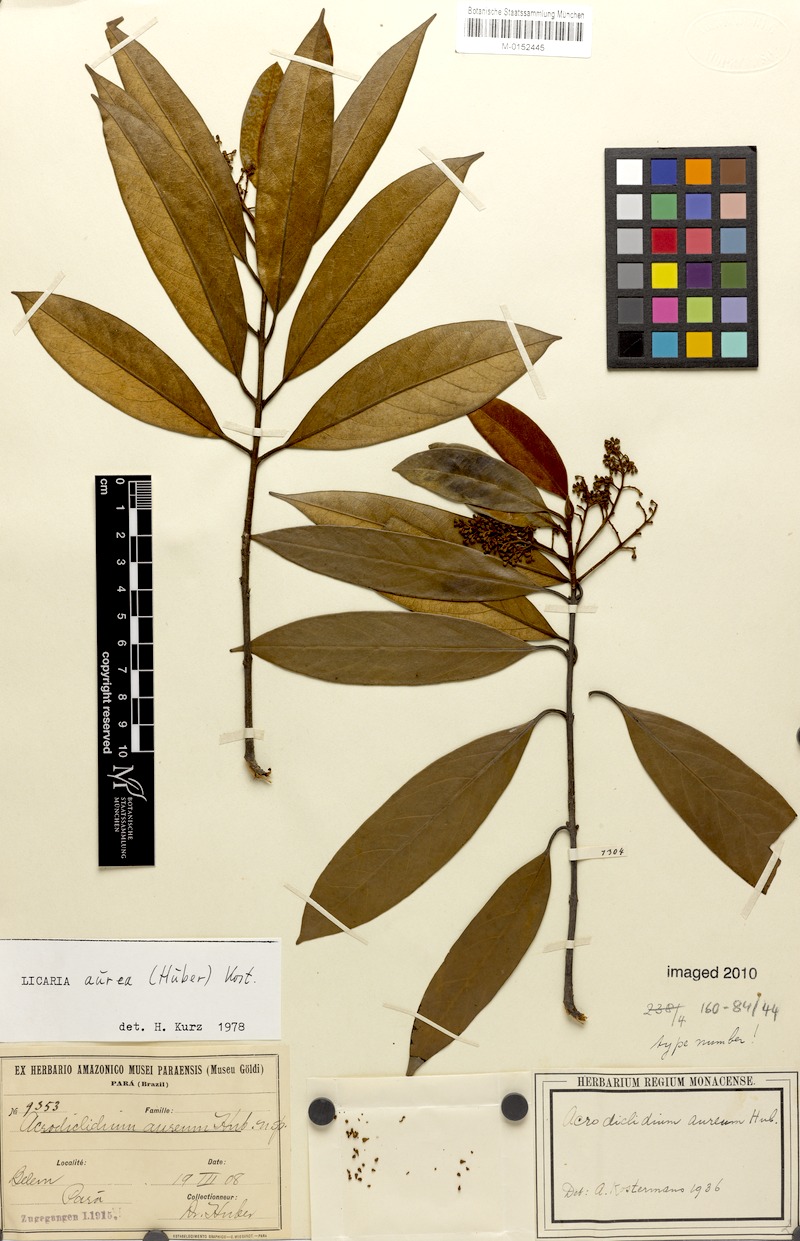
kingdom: Plantae
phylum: Tracheophyta
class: Magnoliopsida
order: Laurales
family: Lauraceae
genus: Licaria
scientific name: Licaria aurea
